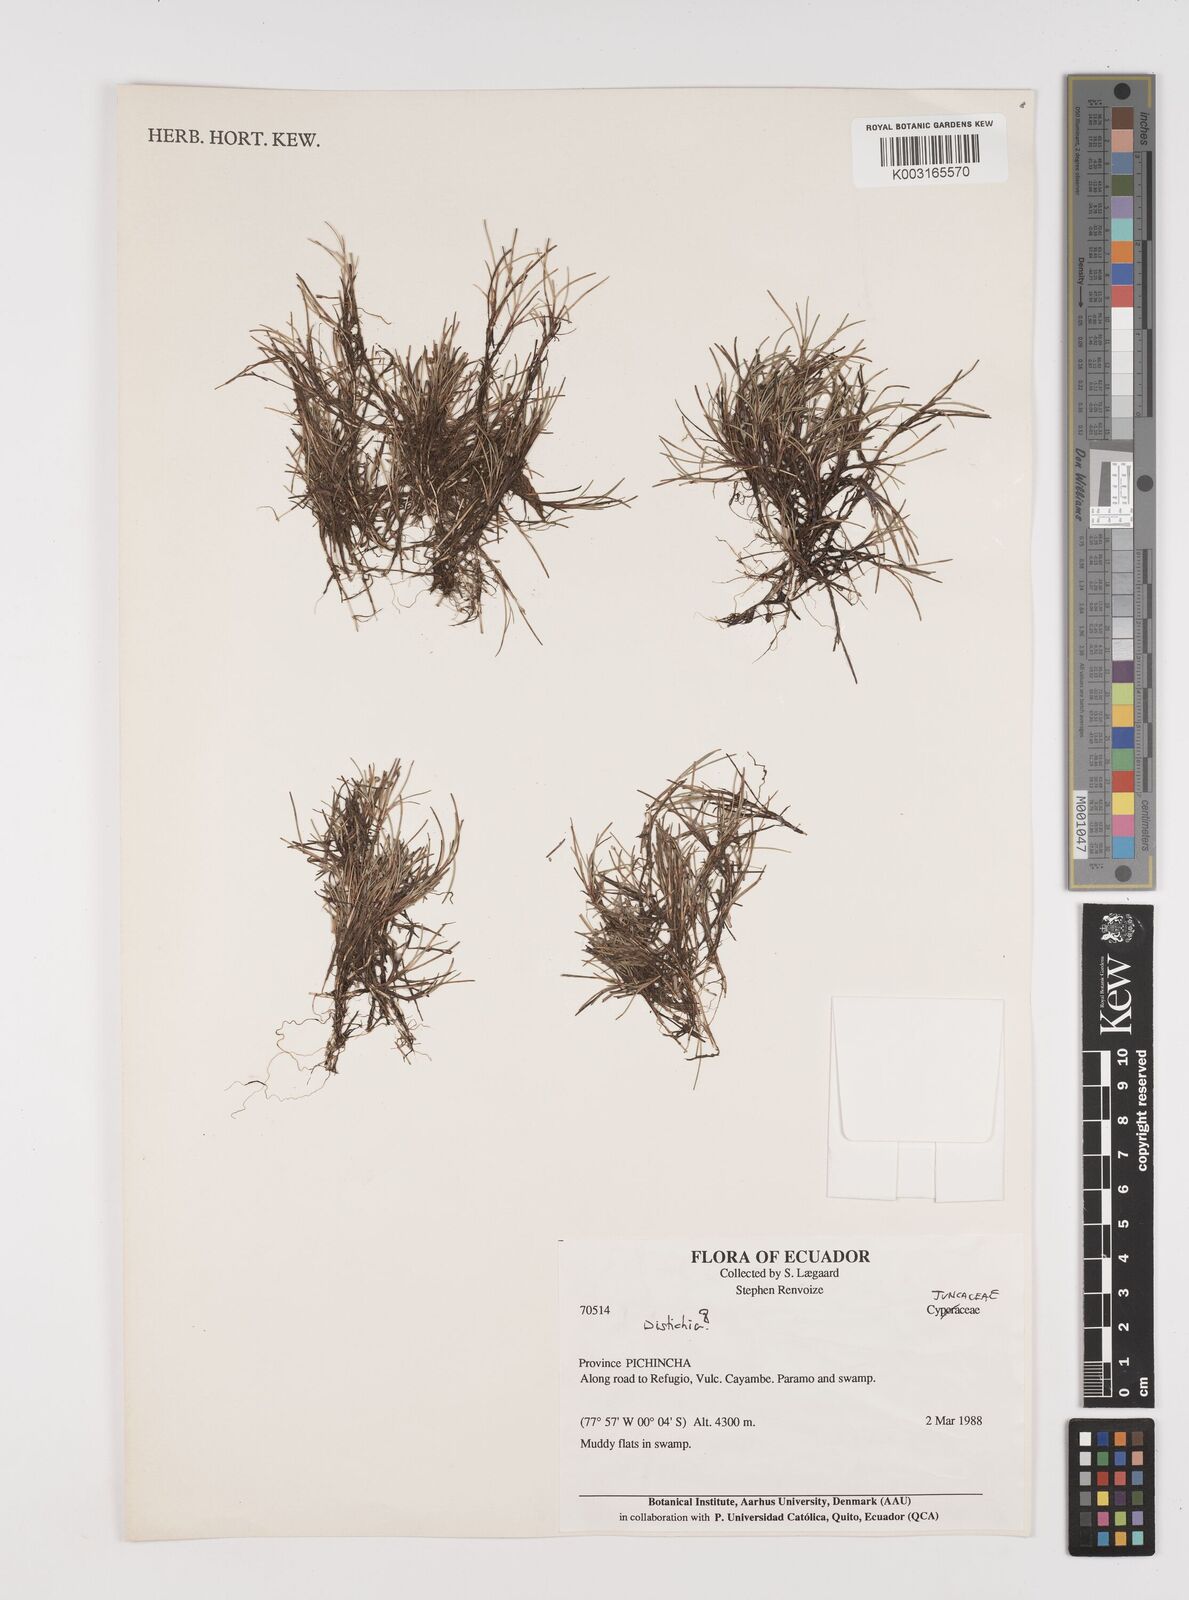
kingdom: Plantae
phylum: Tracheophyta
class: Liliopsida
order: Poales
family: Juncaceae
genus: Distichia
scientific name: Distichia
